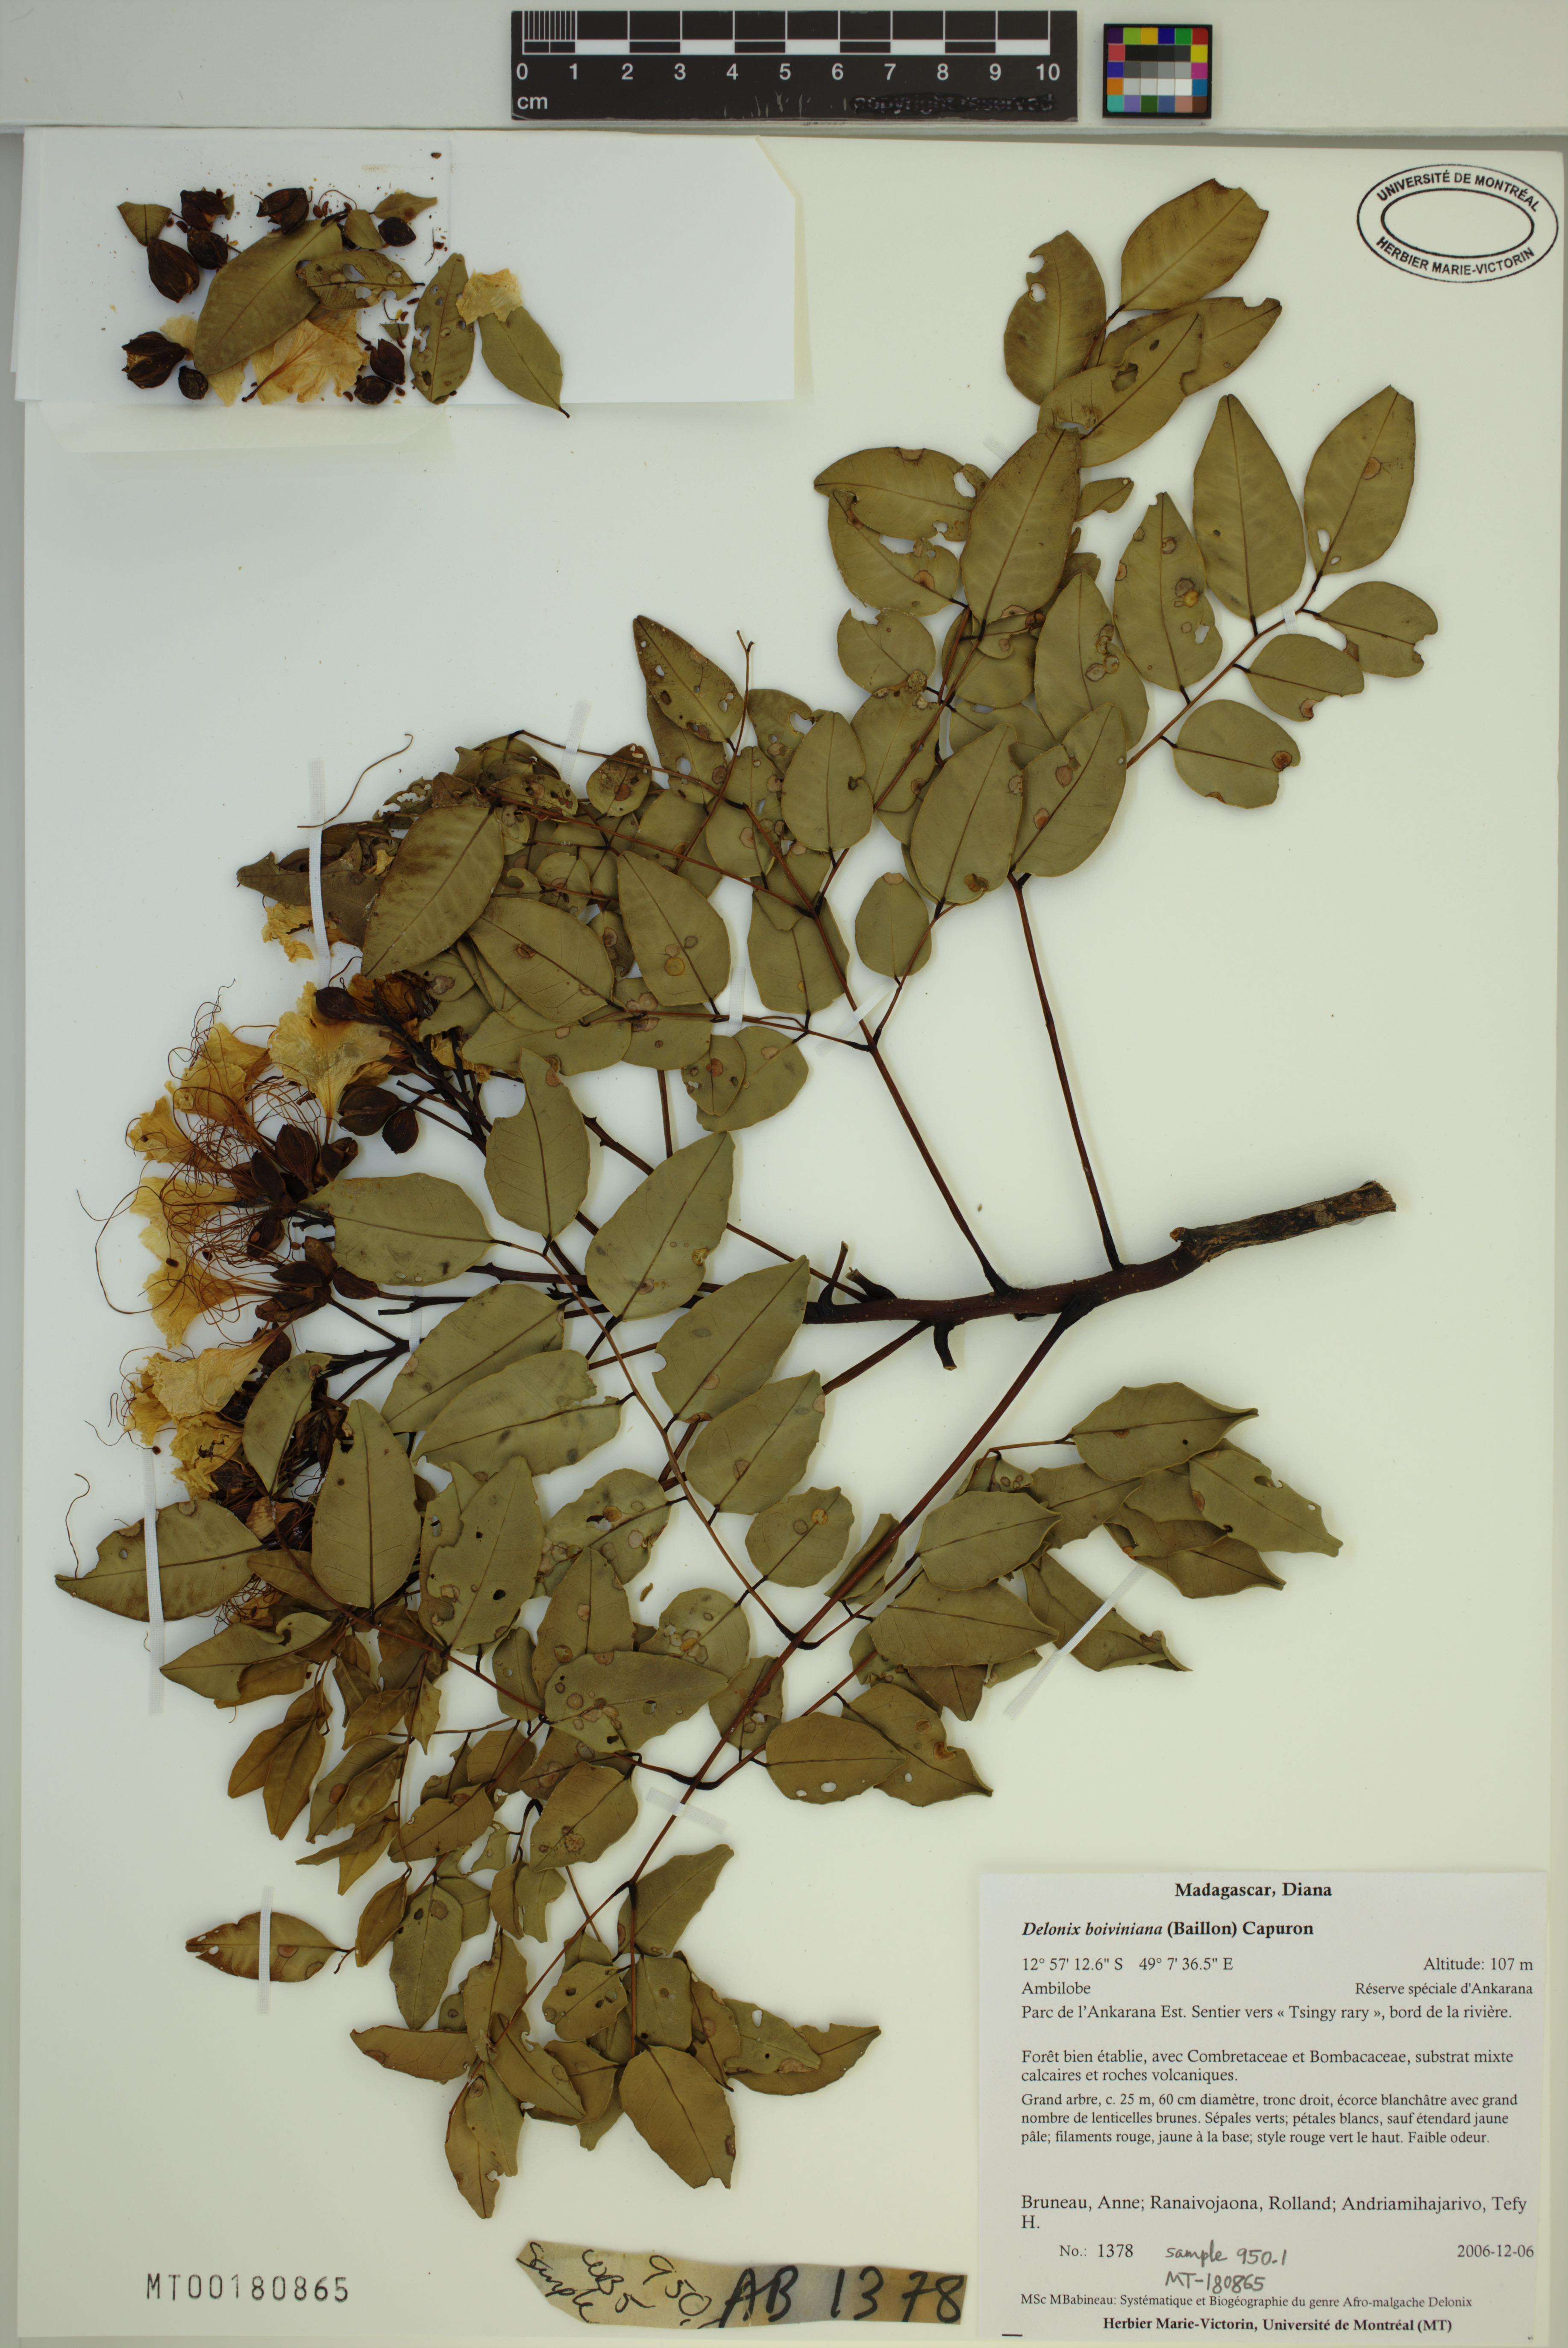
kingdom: Plantae
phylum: Tracheophyta
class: Magnoliopsida
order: Fabales
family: Fabaceae
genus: Delonix
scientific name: Delonix boiviniana
